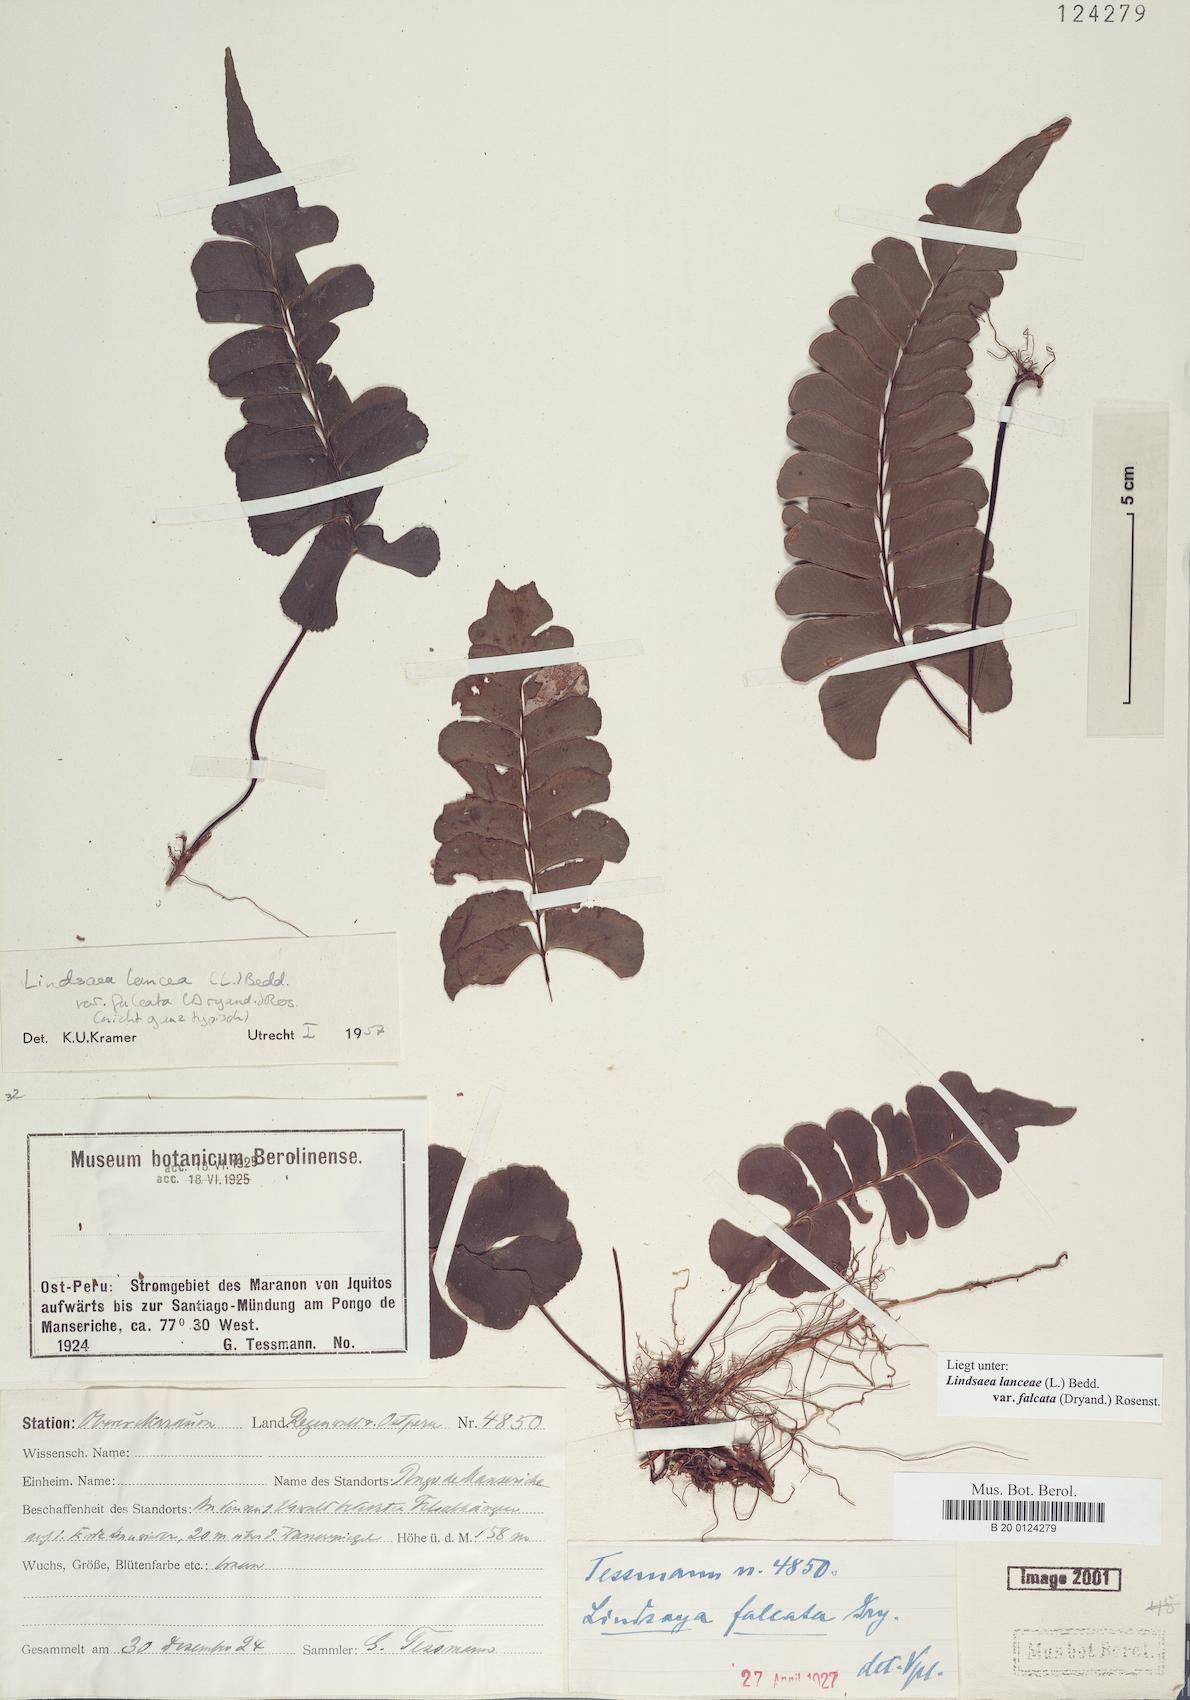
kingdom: Plantae
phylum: Tracheophyta
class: Polypodiopsida
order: Polypodiales
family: Lindsaeaceae
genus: Lindsaea
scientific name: Lindsaea falcata
